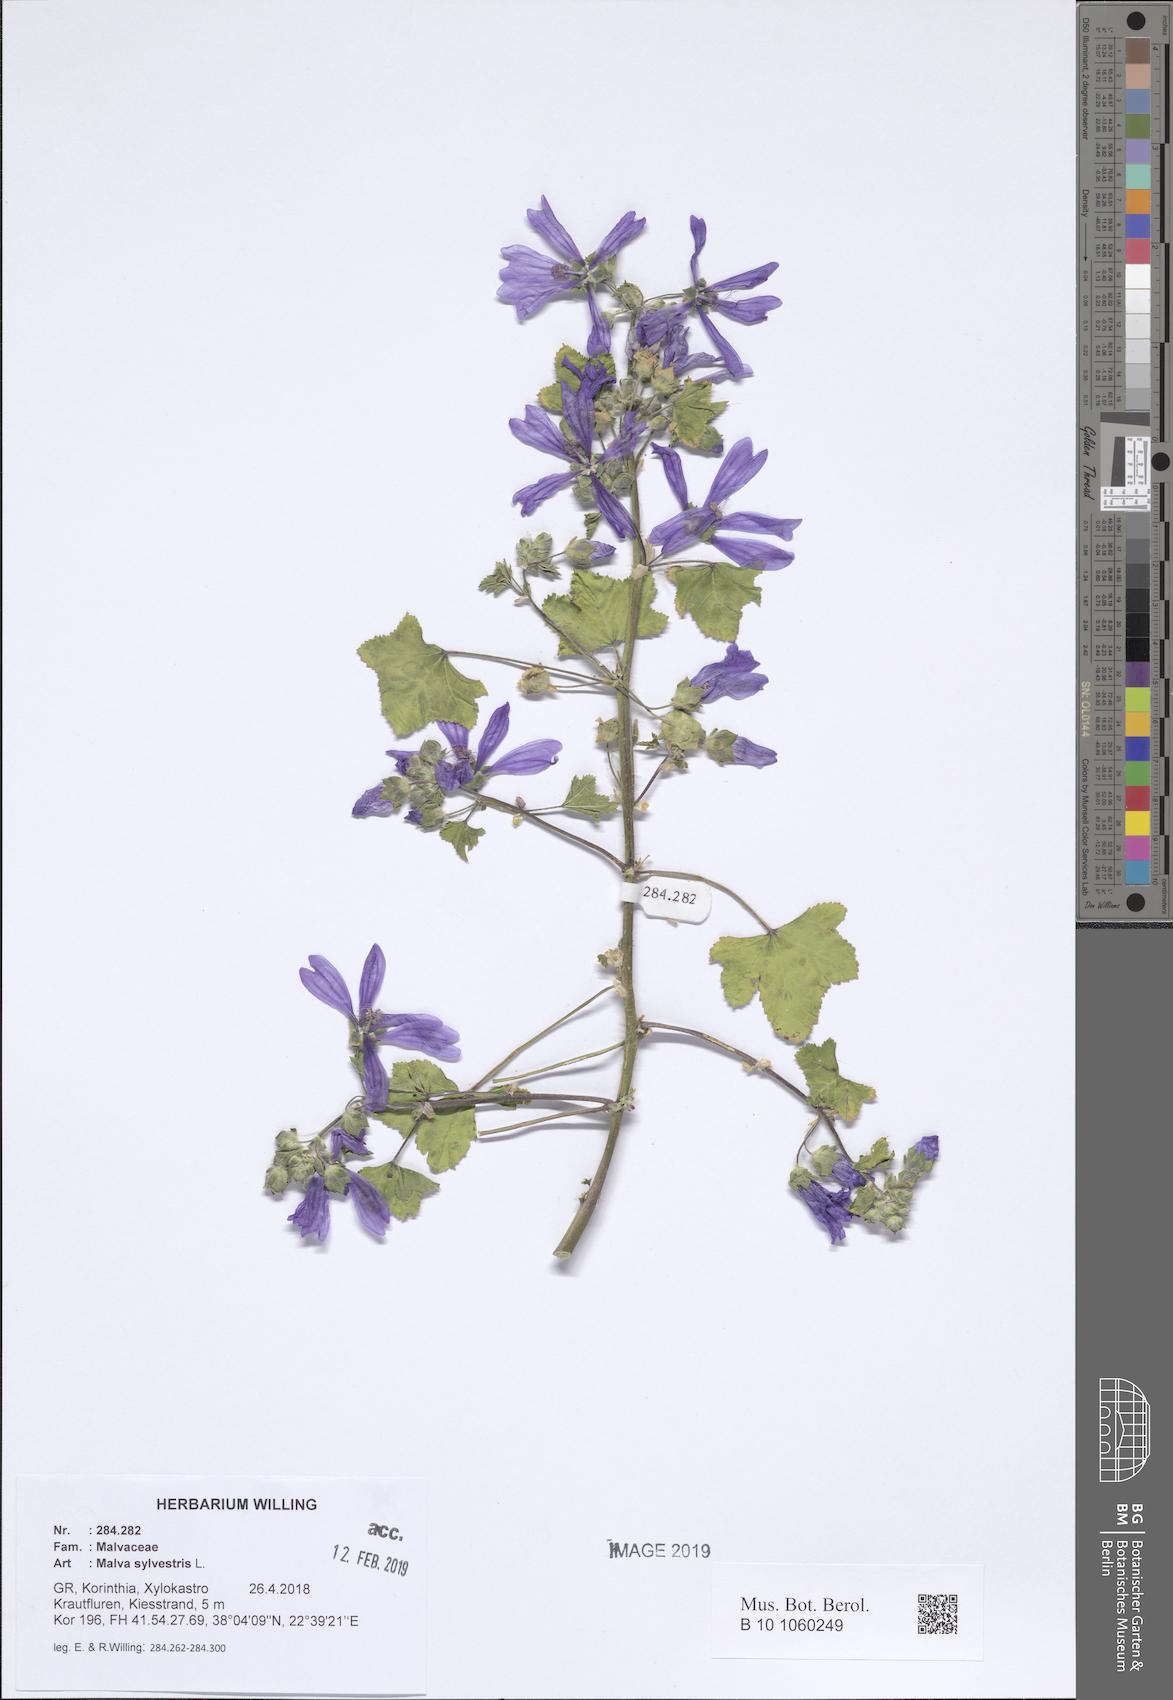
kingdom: Plantae
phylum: Tracheophyta
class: Magnoliopsida
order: Malvales
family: Malvaceae
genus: Malva
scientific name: Malva sylvestris
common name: Common mallow
